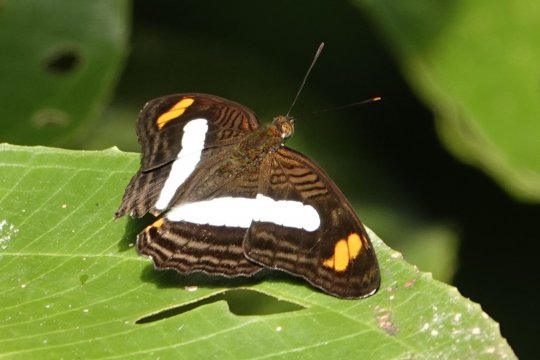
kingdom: Animalia
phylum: Arthropoda
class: Insecta
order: Lepidoptera
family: Nymphalidae
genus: Limenitis
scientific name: Limenitis Adelpha iphiclus
